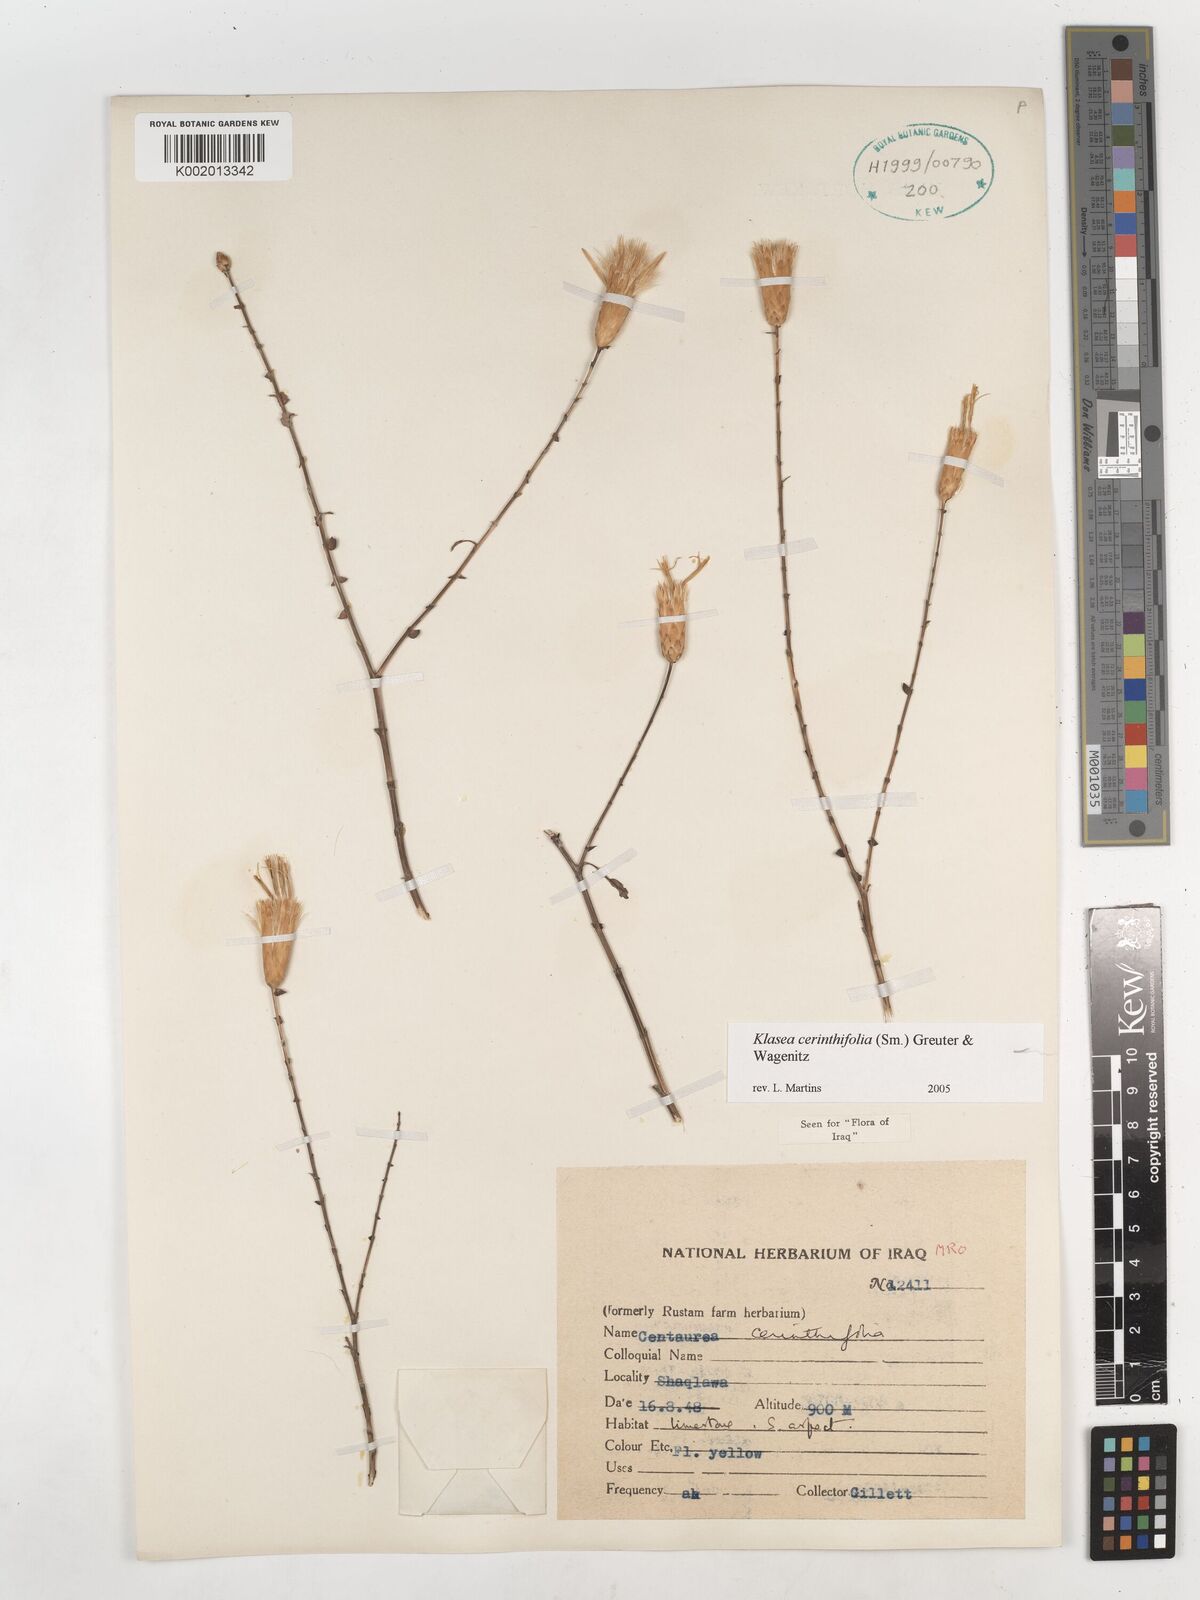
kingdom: Plantae
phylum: Tracheophyta
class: Magnoliopsida
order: Asterales
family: Asteraceae
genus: Klasea
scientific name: Klasea cerinthifolia
